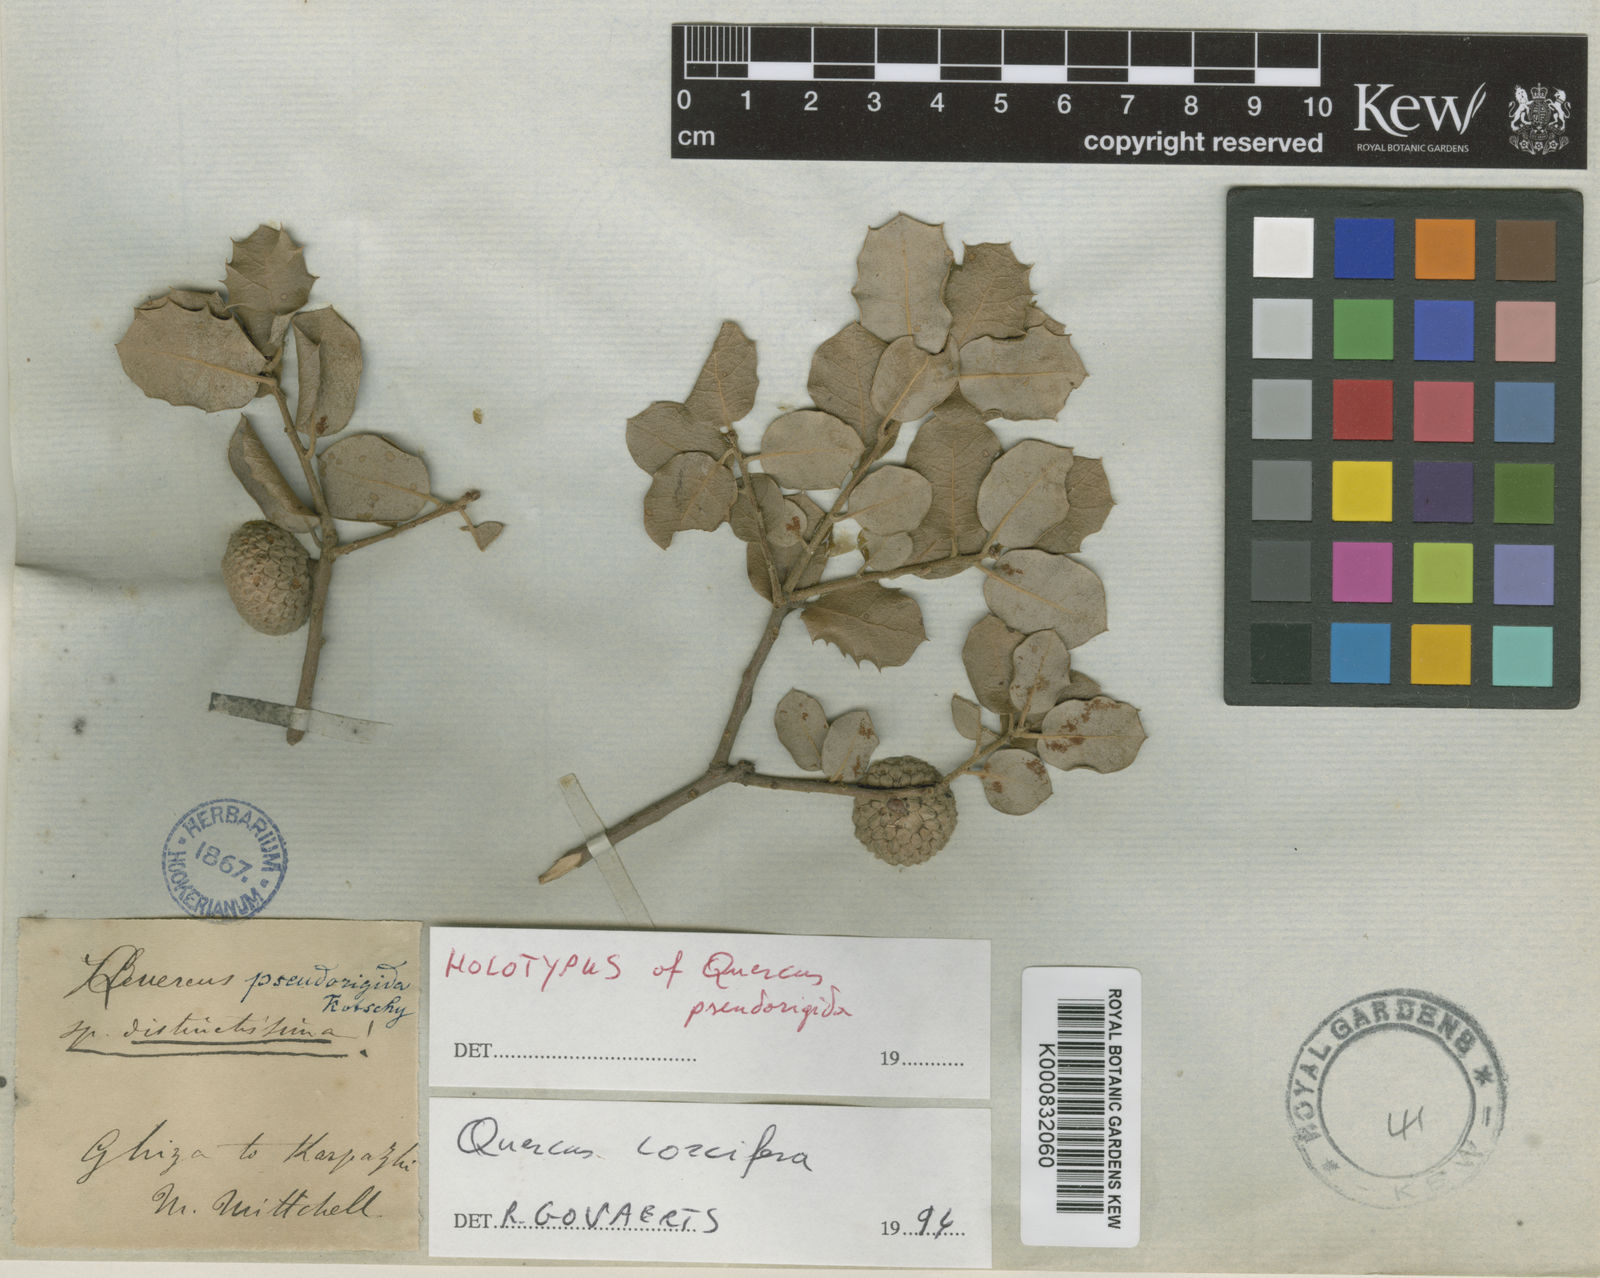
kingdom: Plantae
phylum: Tracheophyta
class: Magnoliopsida
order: Fagales
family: Fagaceae
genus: Quercus
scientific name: Quercus coccifera
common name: Kermes oak
